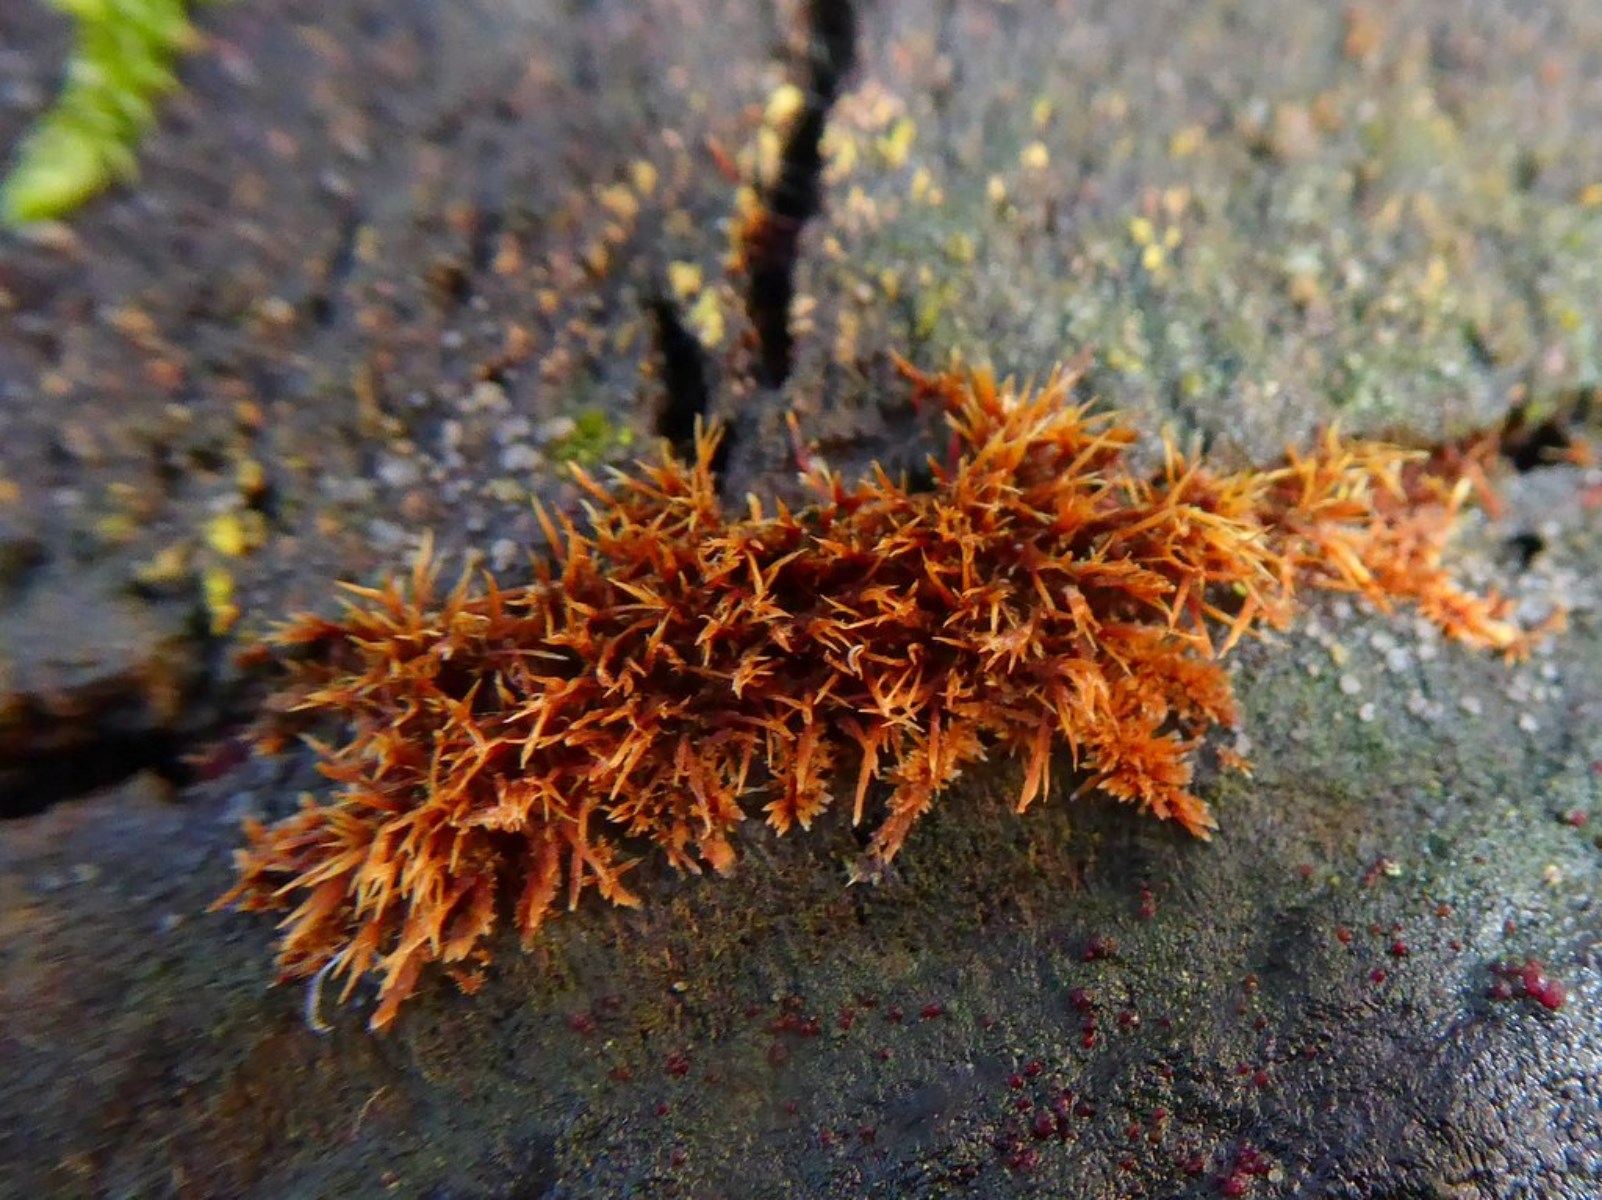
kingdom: Fungi
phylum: Basidiomycota
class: Agaricomycetes
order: Agaricales
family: Psathyrellaceae
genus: Ozonium
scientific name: Ozonium
